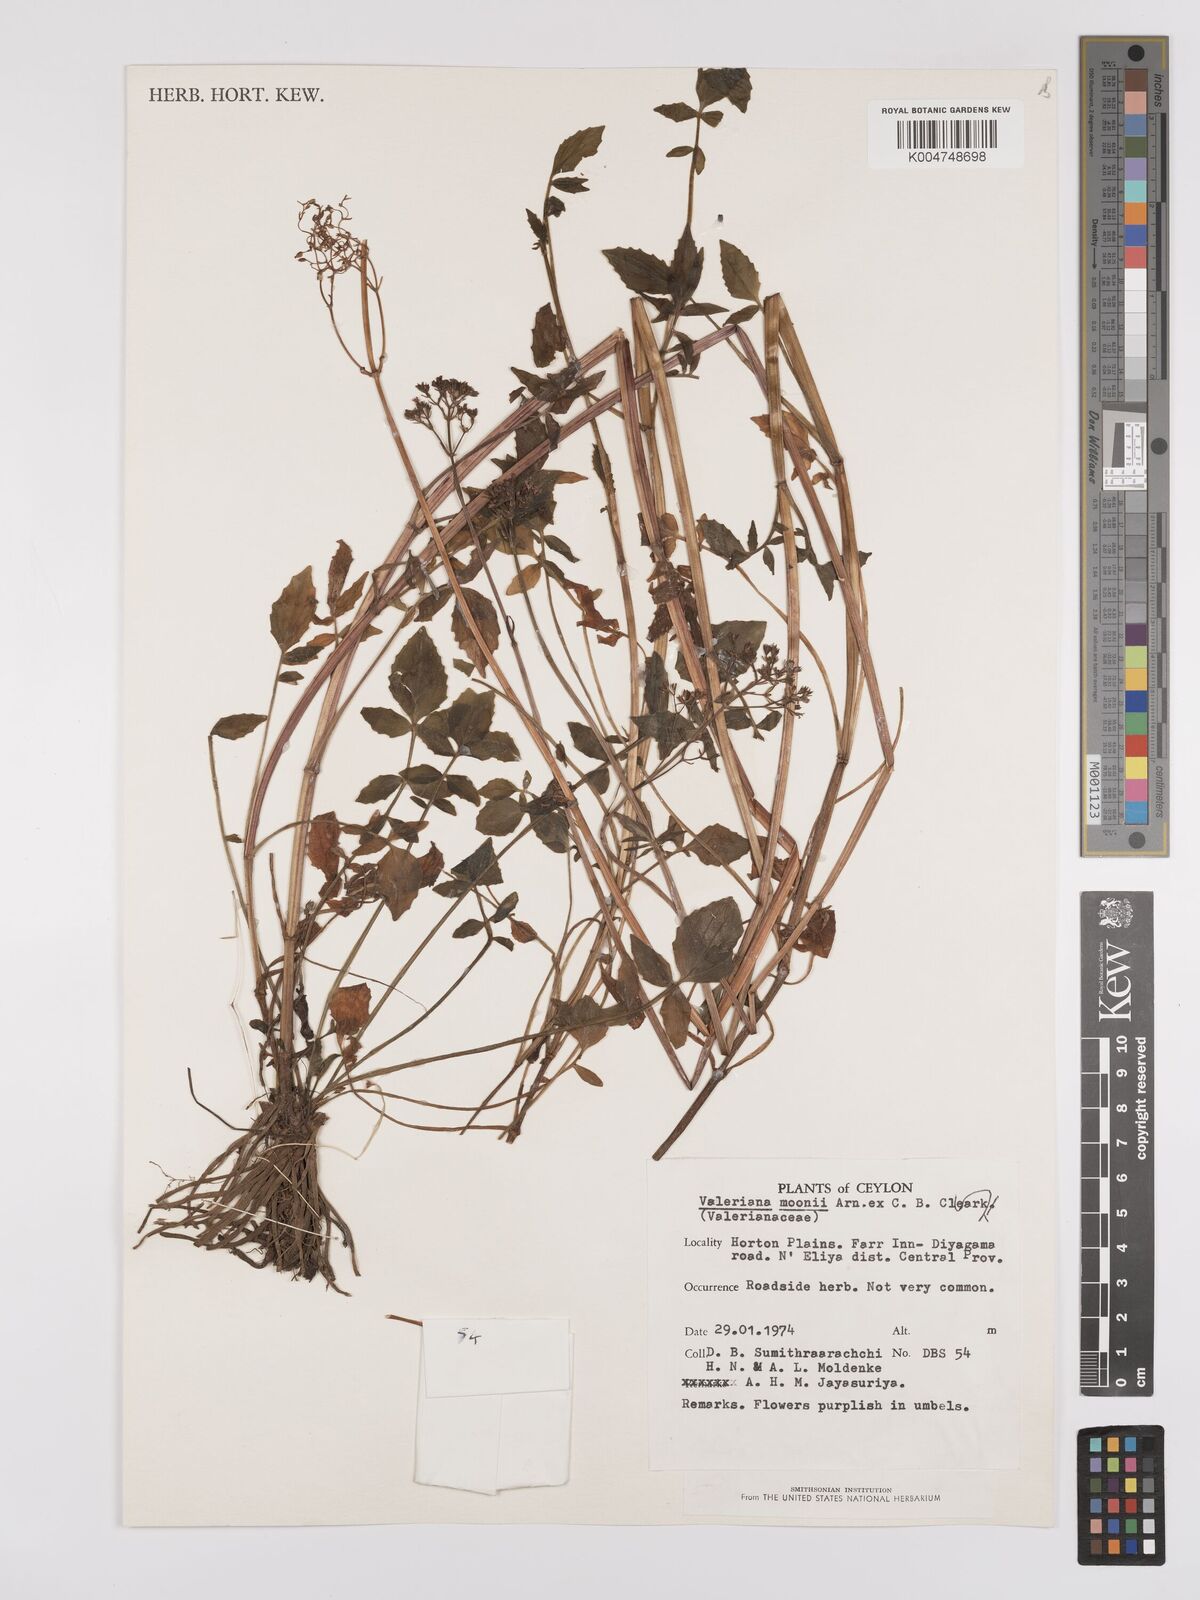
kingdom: Plantae
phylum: Tracheophyta
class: Magnoliopsida
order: Dipsacales
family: Caprifoliaceae
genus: Valeriana
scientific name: Valeriana moonii
